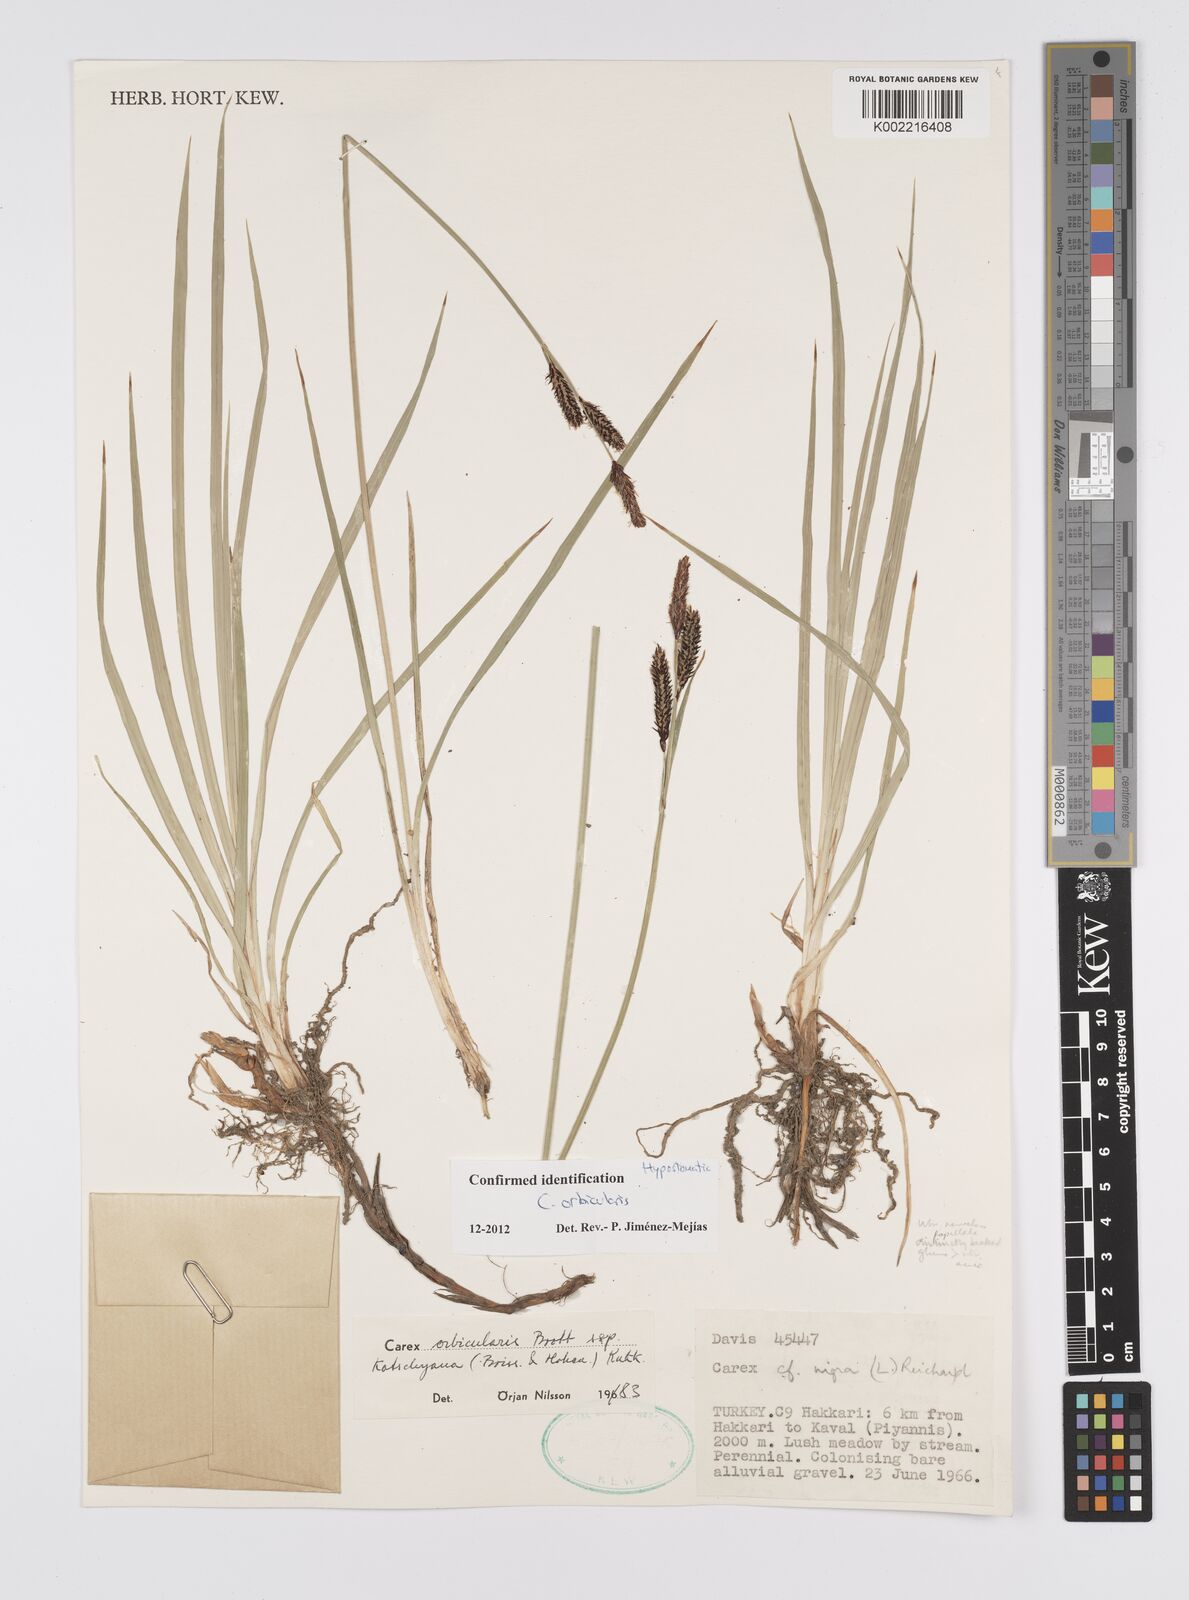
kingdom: Plantae
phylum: Tracheophyta
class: Liliopsida
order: Poales
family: Cyperaceae
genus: Carex
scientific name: Carex orbicularis
